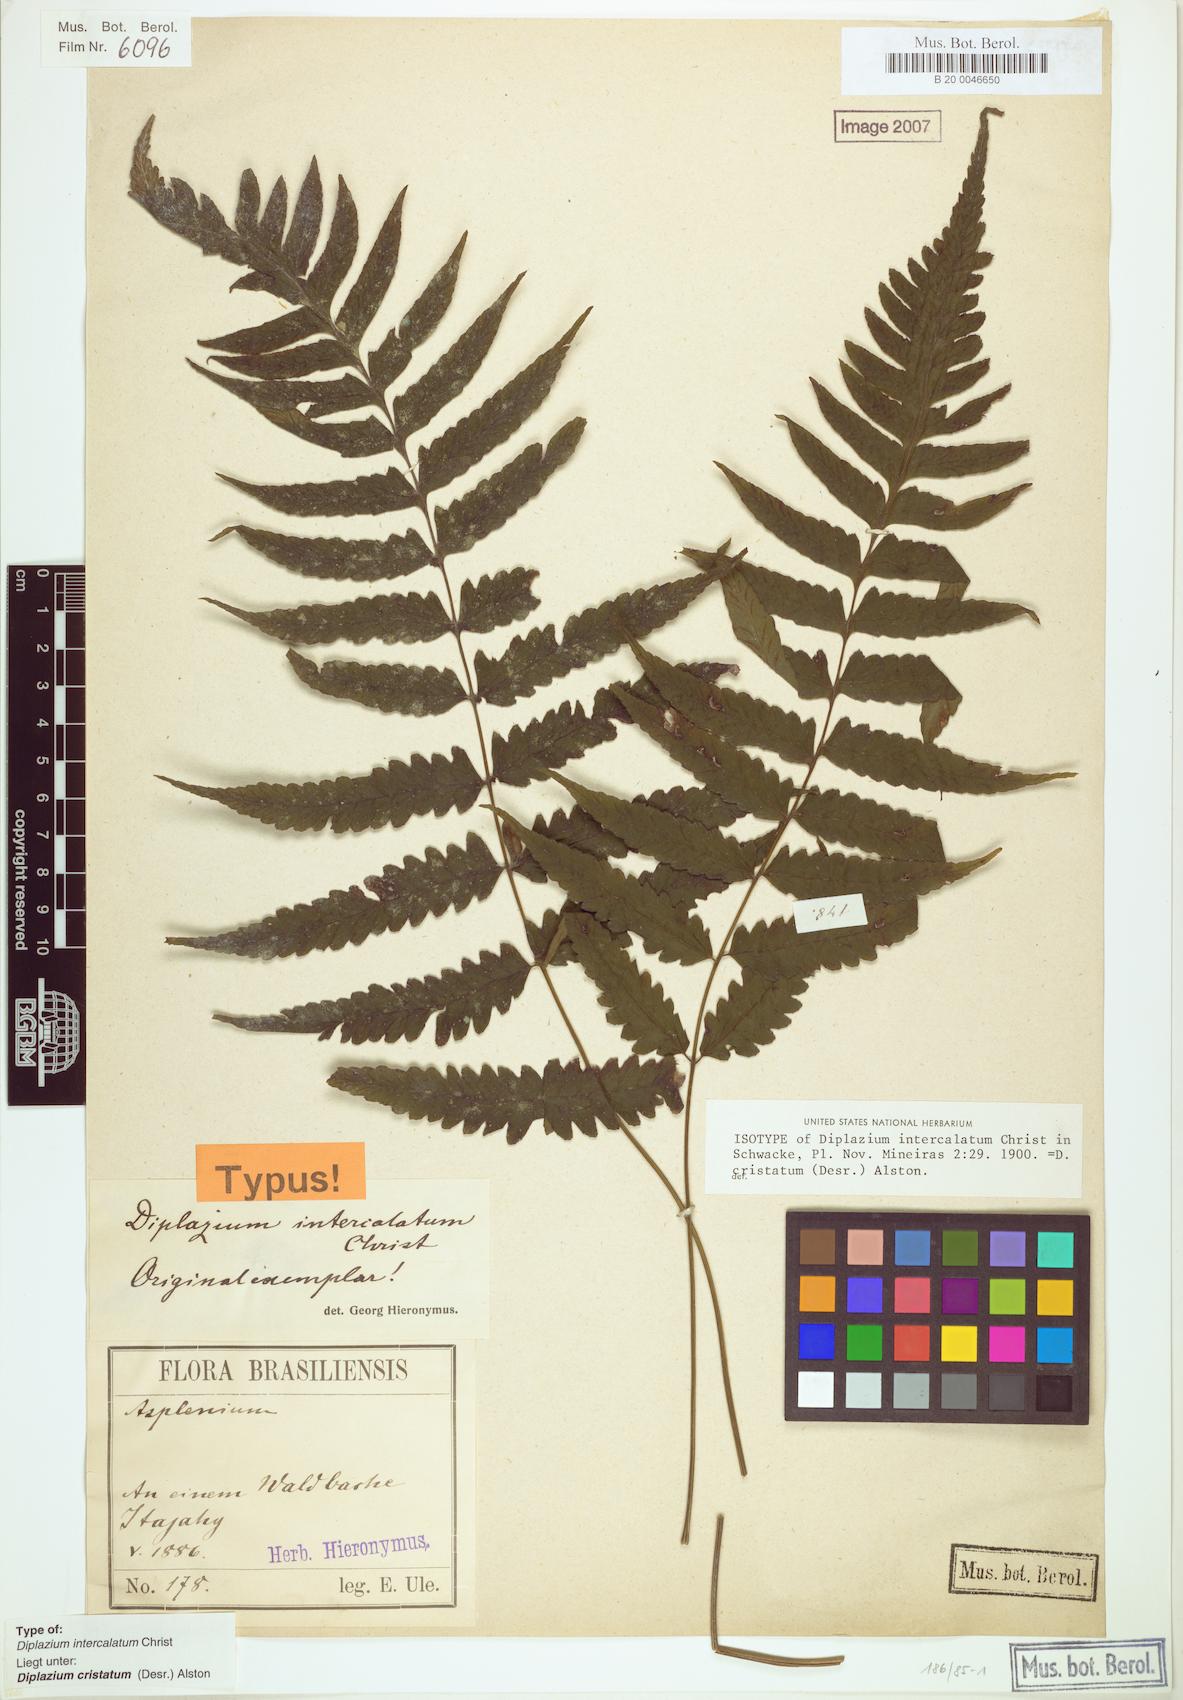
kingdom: Plantae
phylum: Tracheophyta
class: Polypodiopsida
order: Polypodiales
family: Athyriaceae
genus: Diplazium
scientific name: Diplazium cristatum
